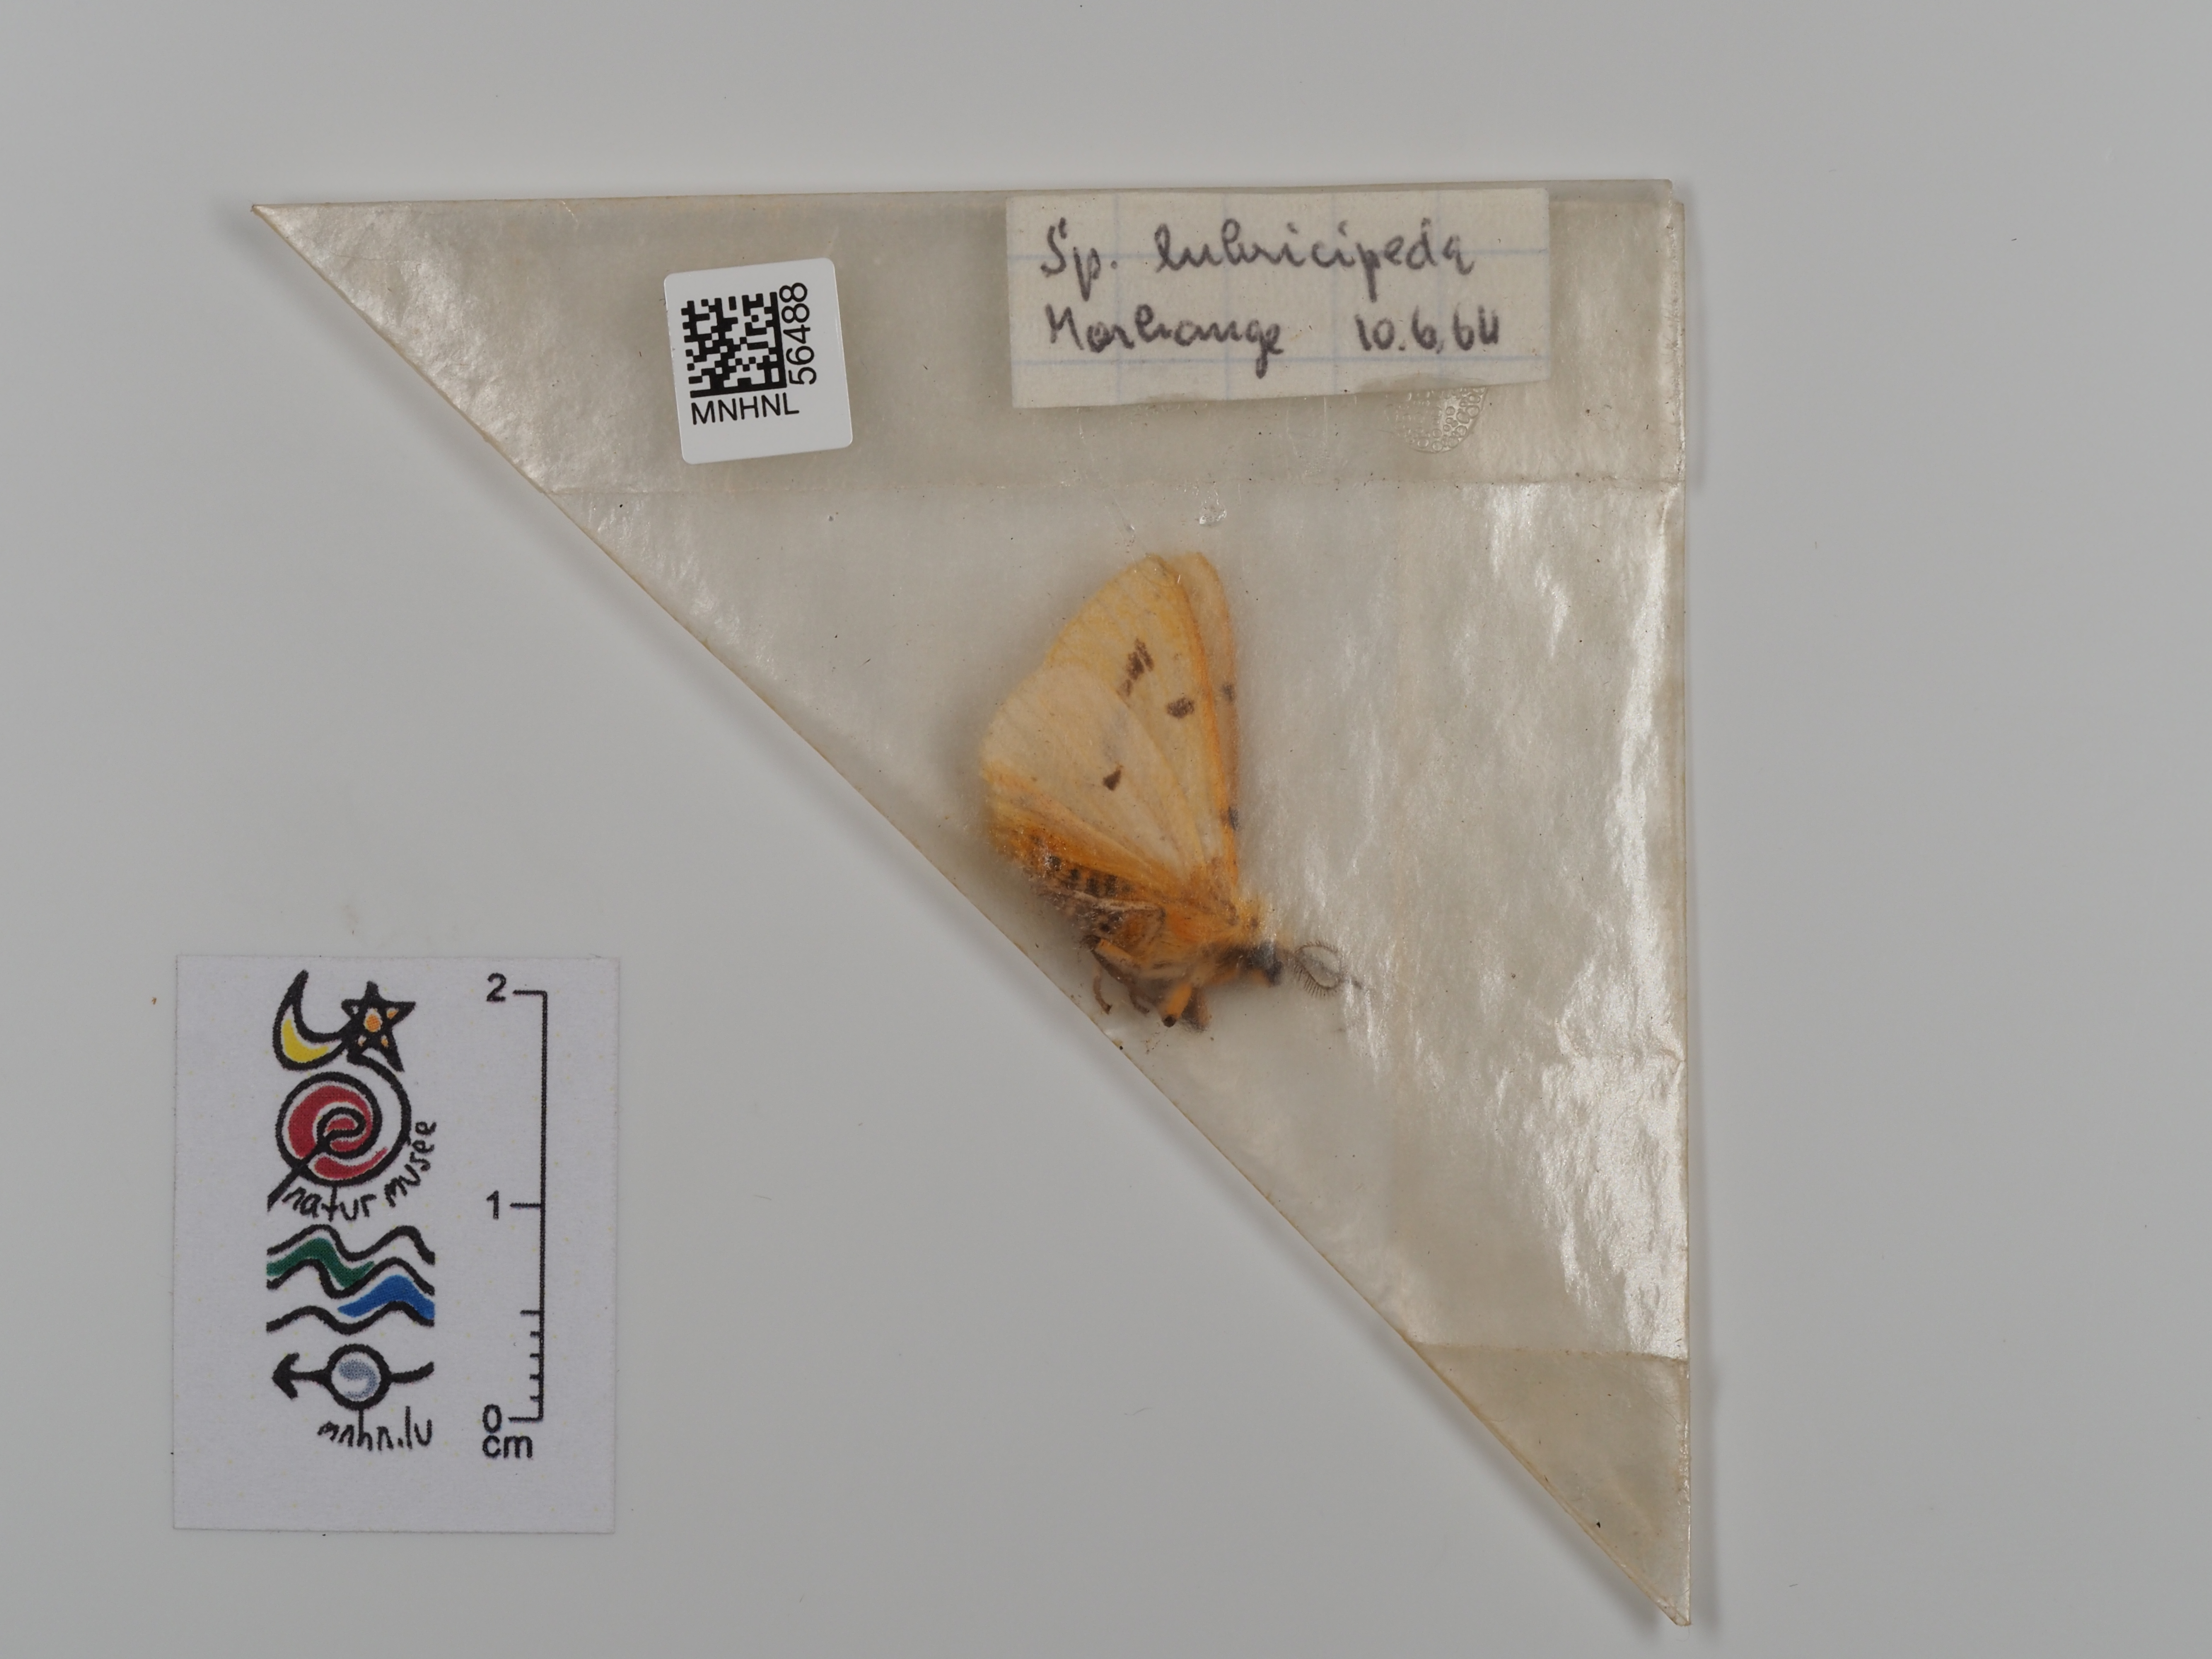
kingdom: Animalia
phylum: Arthropoda
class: Insecta
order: Lepidoptera
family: Erebidae
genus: Spilosoma
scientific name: Spilosoma lubricipeda
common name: White ermine
